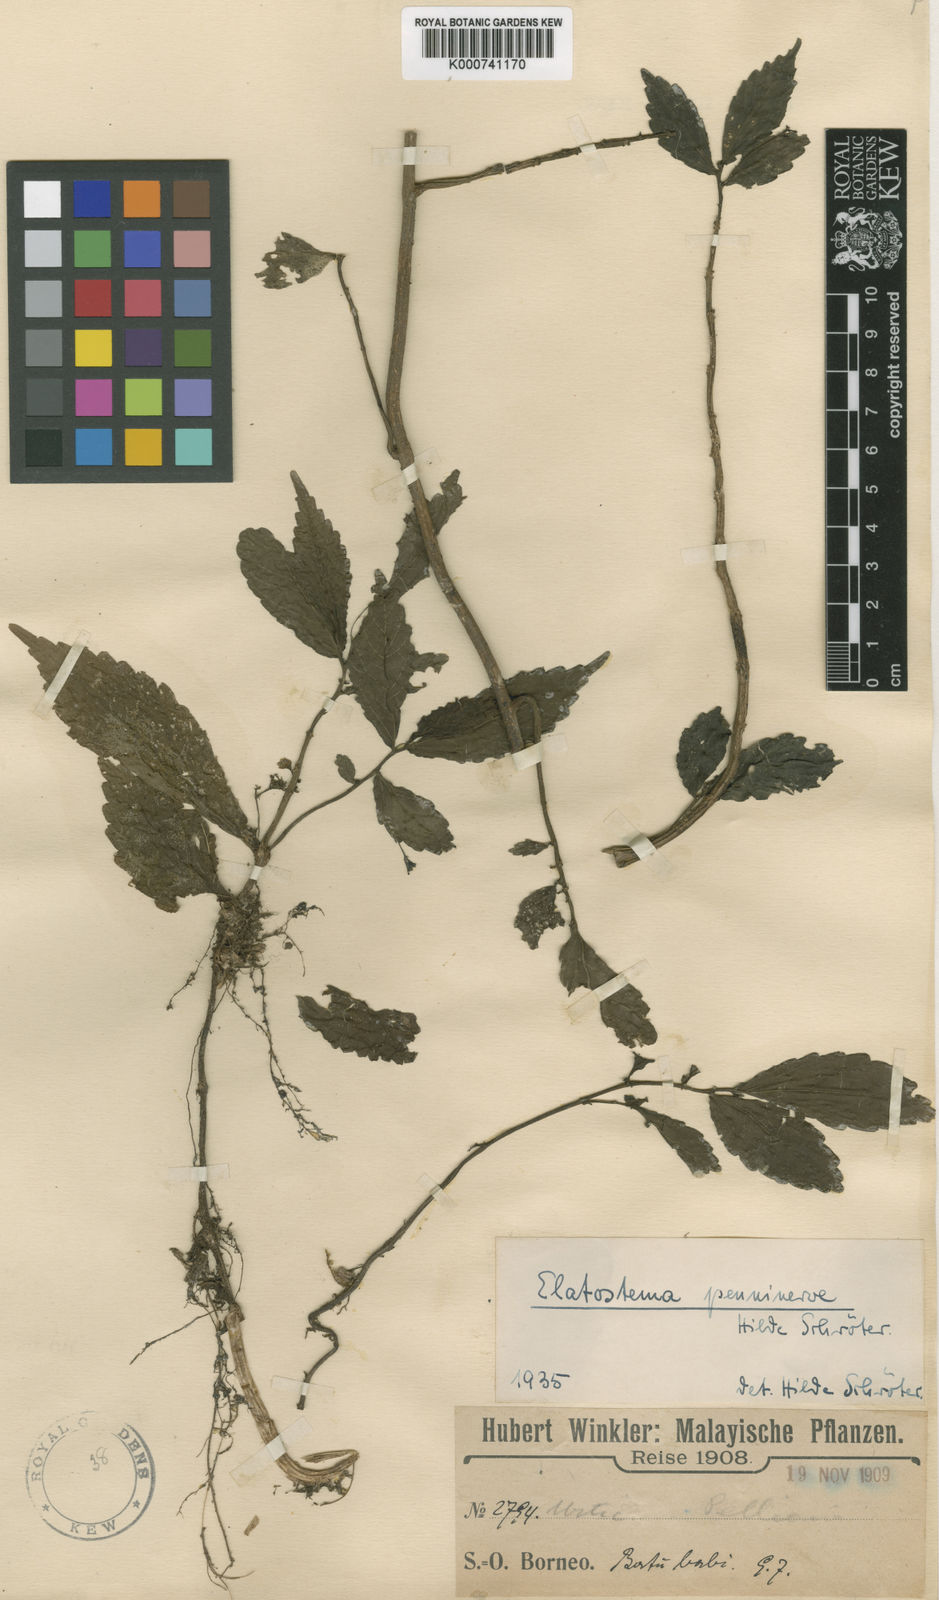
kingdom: Plantae
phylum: Tracheophyta
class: Magnoliopsida
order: Rosales
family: Urticaceae
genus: Elatostema
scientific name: Elatostema penninerve
